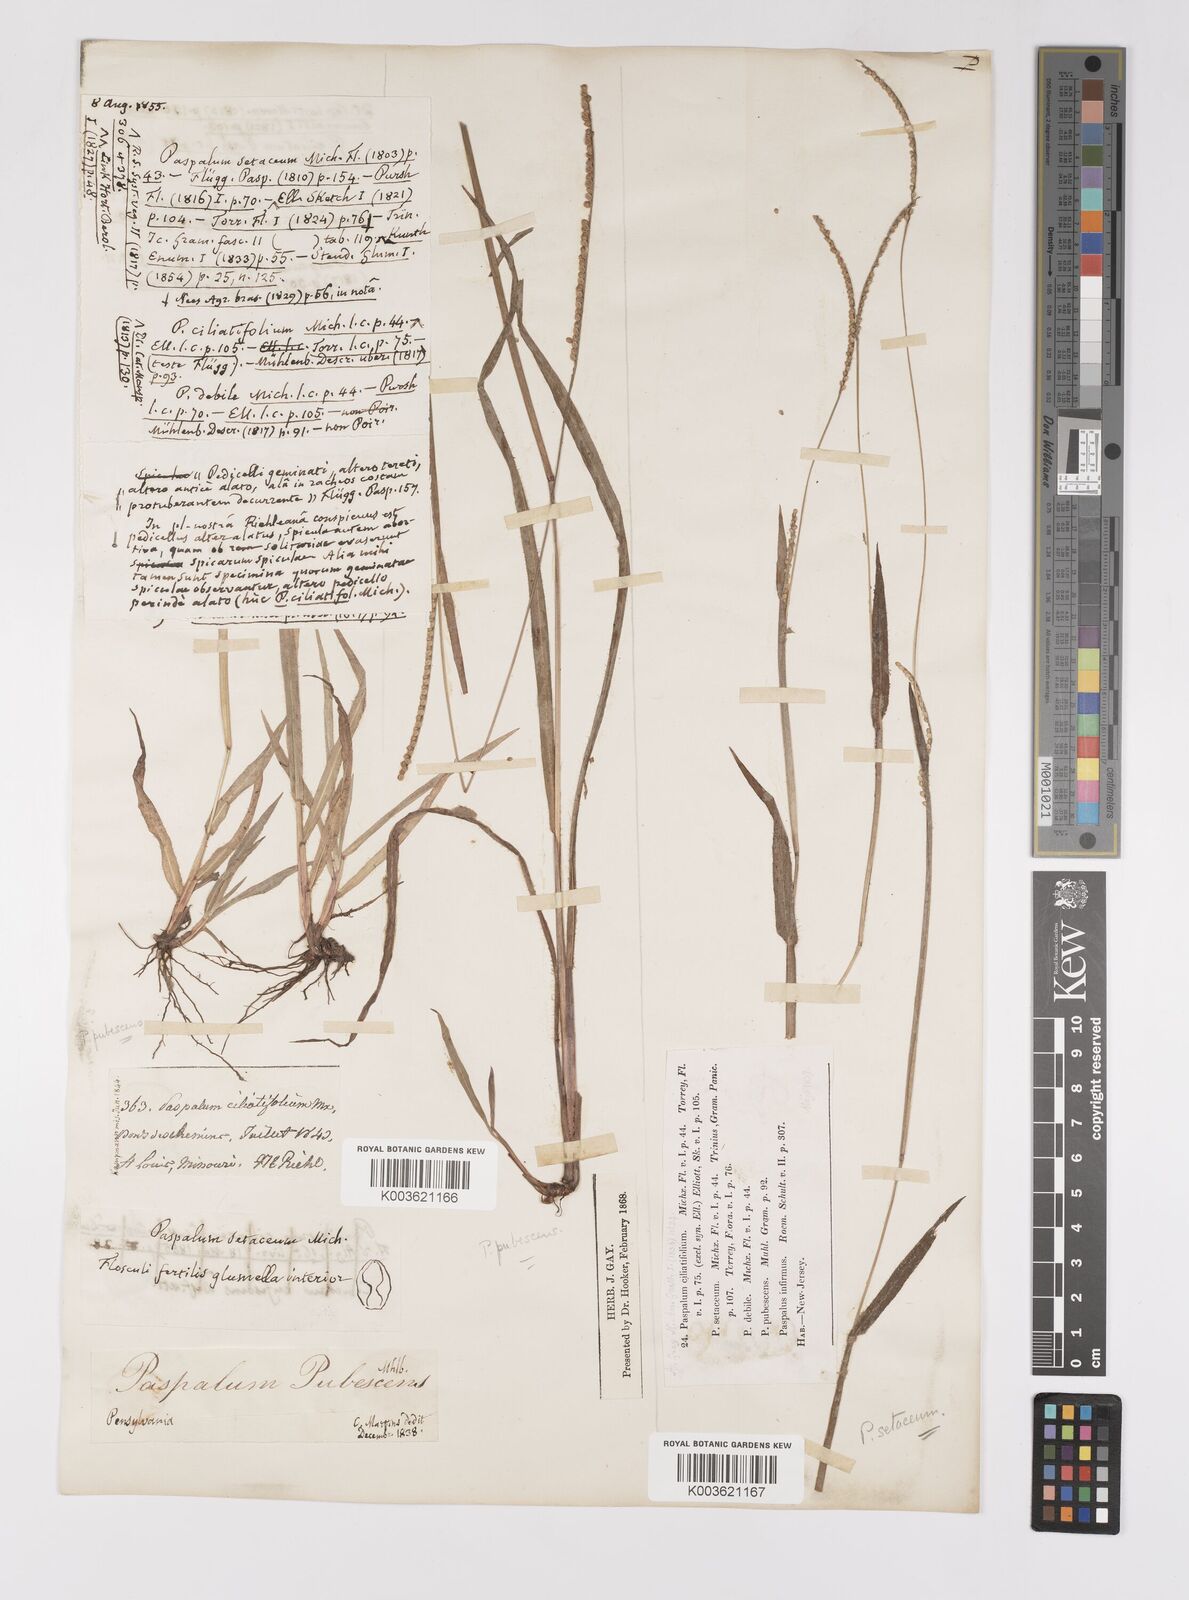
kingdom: Plantae
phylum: Tracheophyta
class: Liliopsida
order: Poales
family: Poaceae
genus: Paspalum
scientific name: Paspalum setaceum
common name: Slender paspalum
